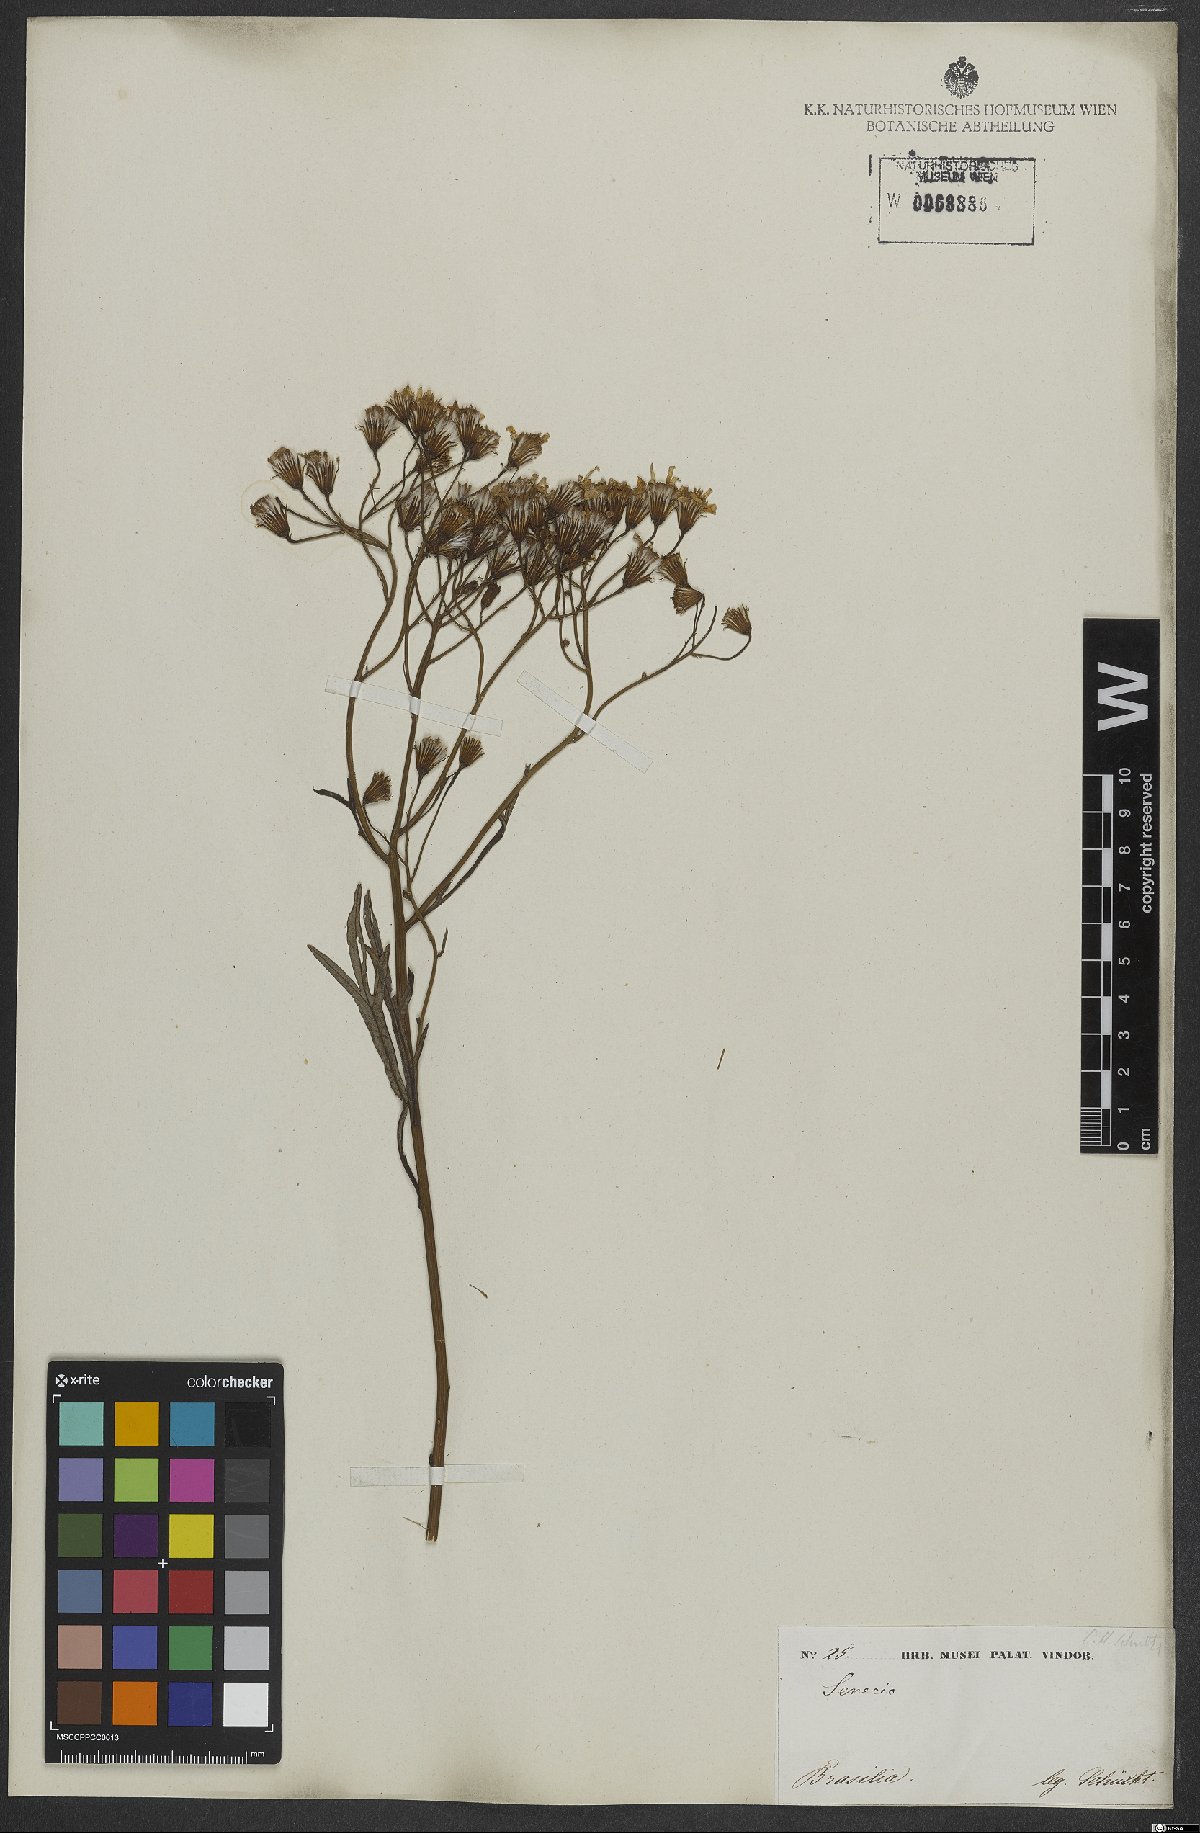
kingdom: Plantae
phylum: Tracheophyta
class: Magnoliopsida
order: Asterales
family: Asteraceae
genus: Senecio
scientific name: Senecio brasiliensis
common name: Hemp-leaf ragwort
